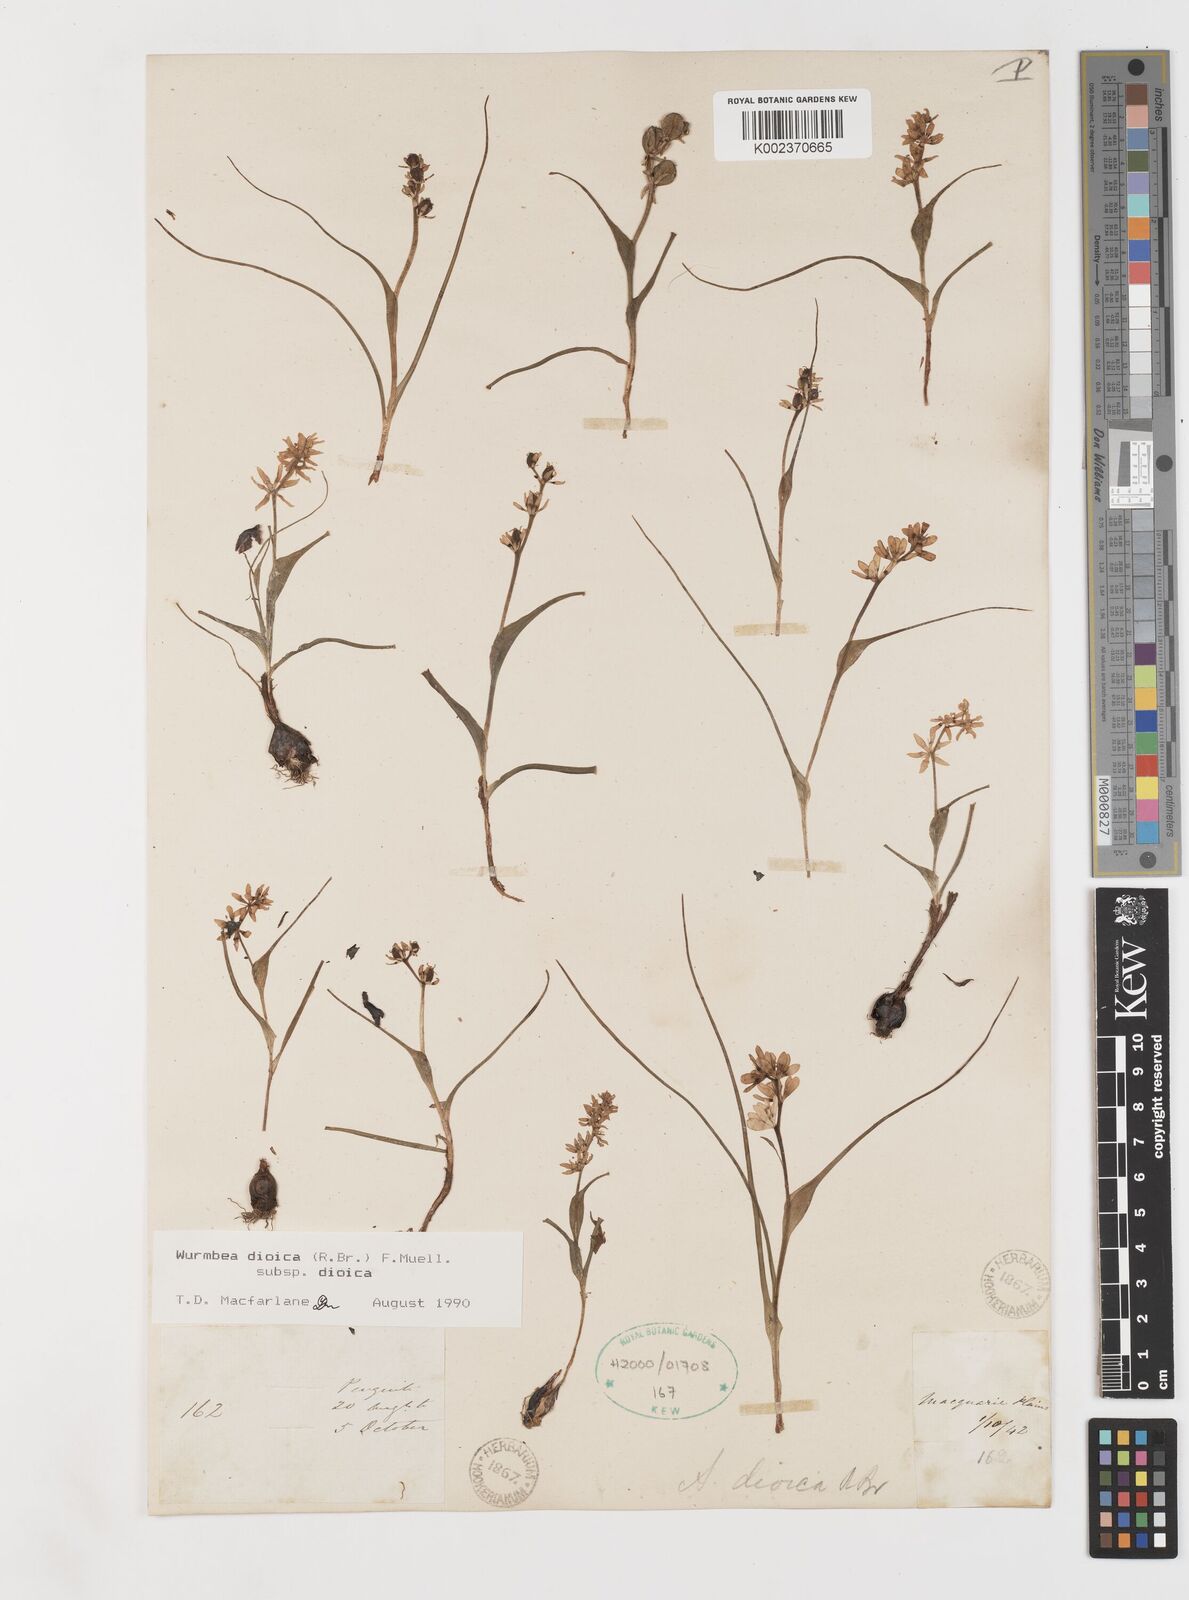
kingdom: Plantae
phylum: Tracheophyta
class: Liliopsida
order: Liliales
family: Colchicaceae
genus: Wurmbea
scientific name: Wurmbea dioica
